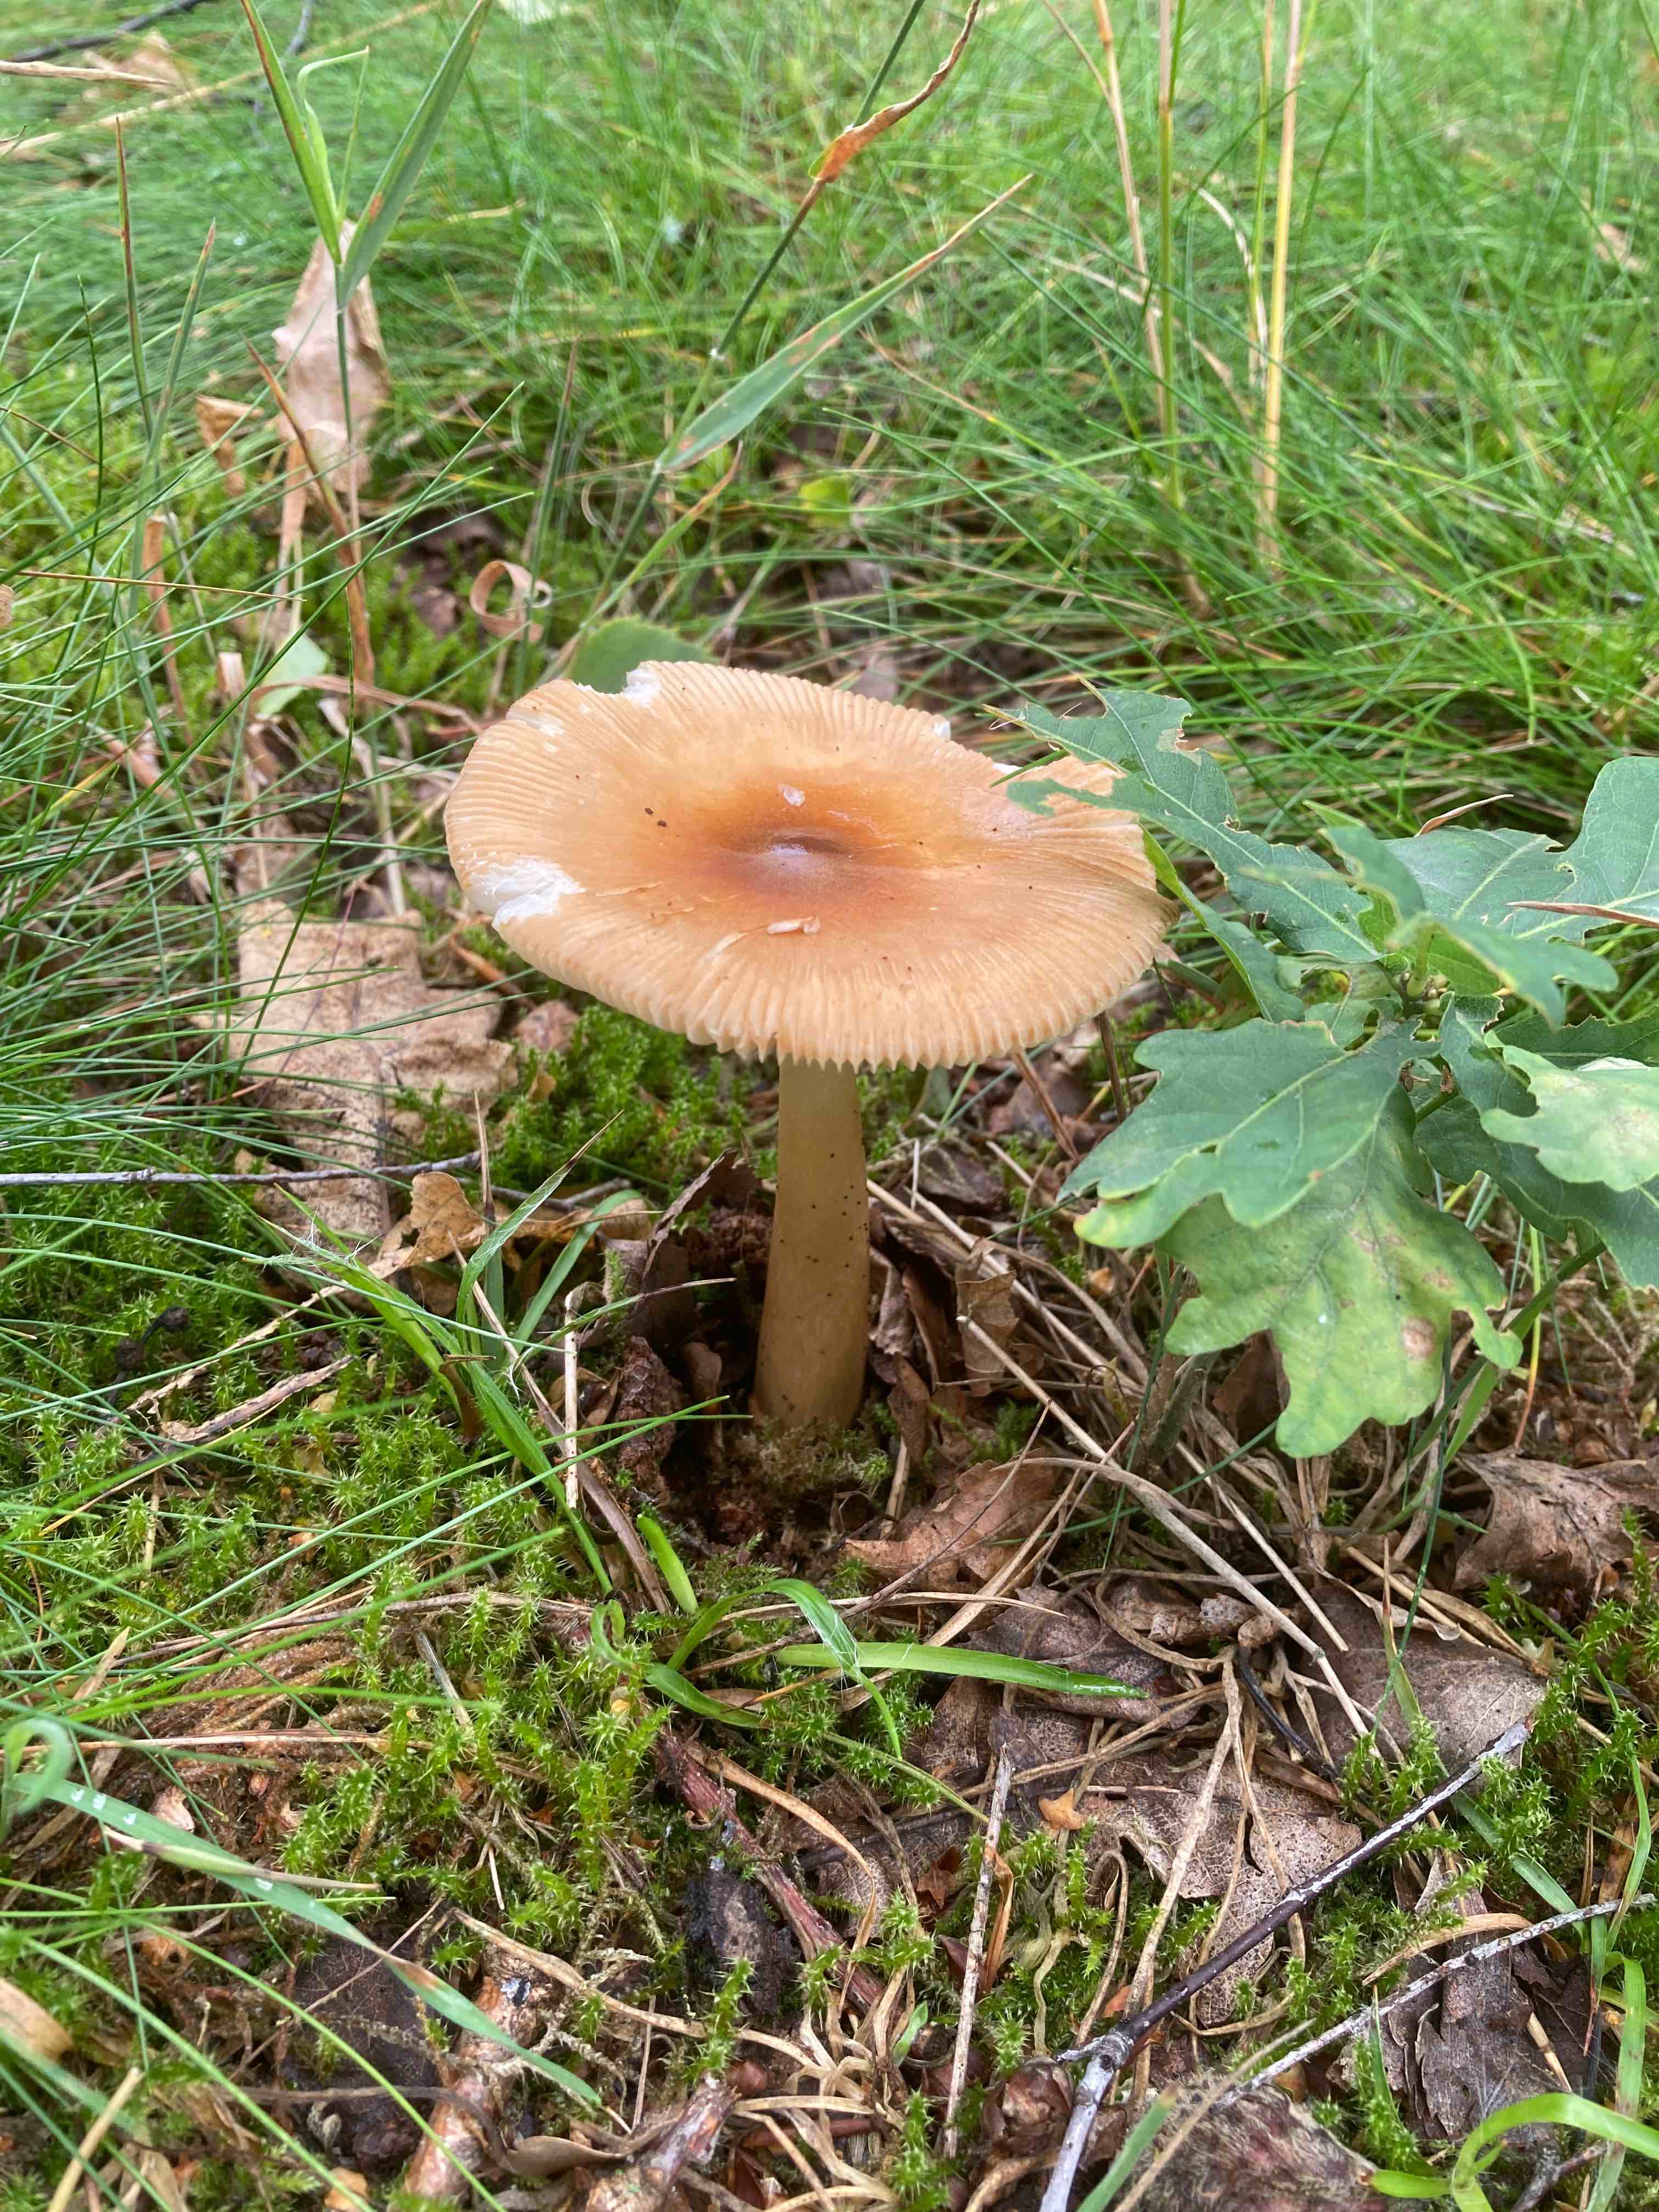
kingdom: Fungi
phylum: Basidiomycota
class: Agaricomycetes
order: Agaricales
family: Amanitaceae
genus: Amanita
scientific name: Amanita fulva
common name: brun kam-fluesvamp
